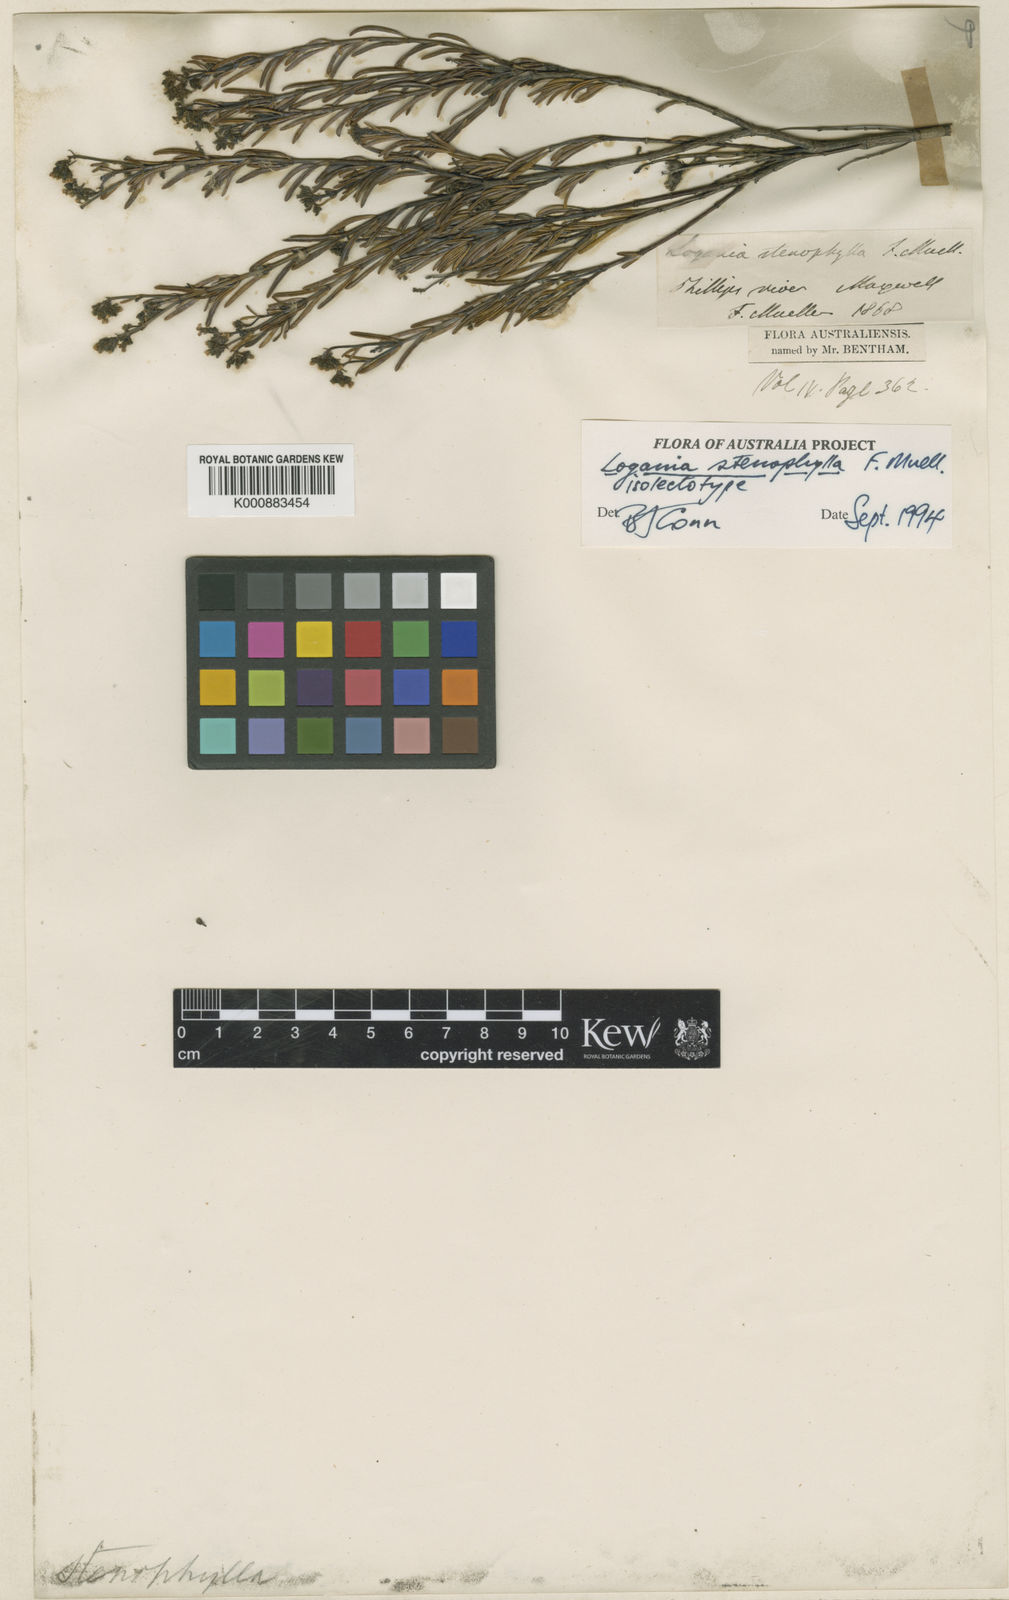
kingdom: Plantae
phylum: Tracheophyta
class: Magnoliopsida
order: Gentianales
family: Loganiaceae
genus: Logania
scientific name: Logania stenophylla
